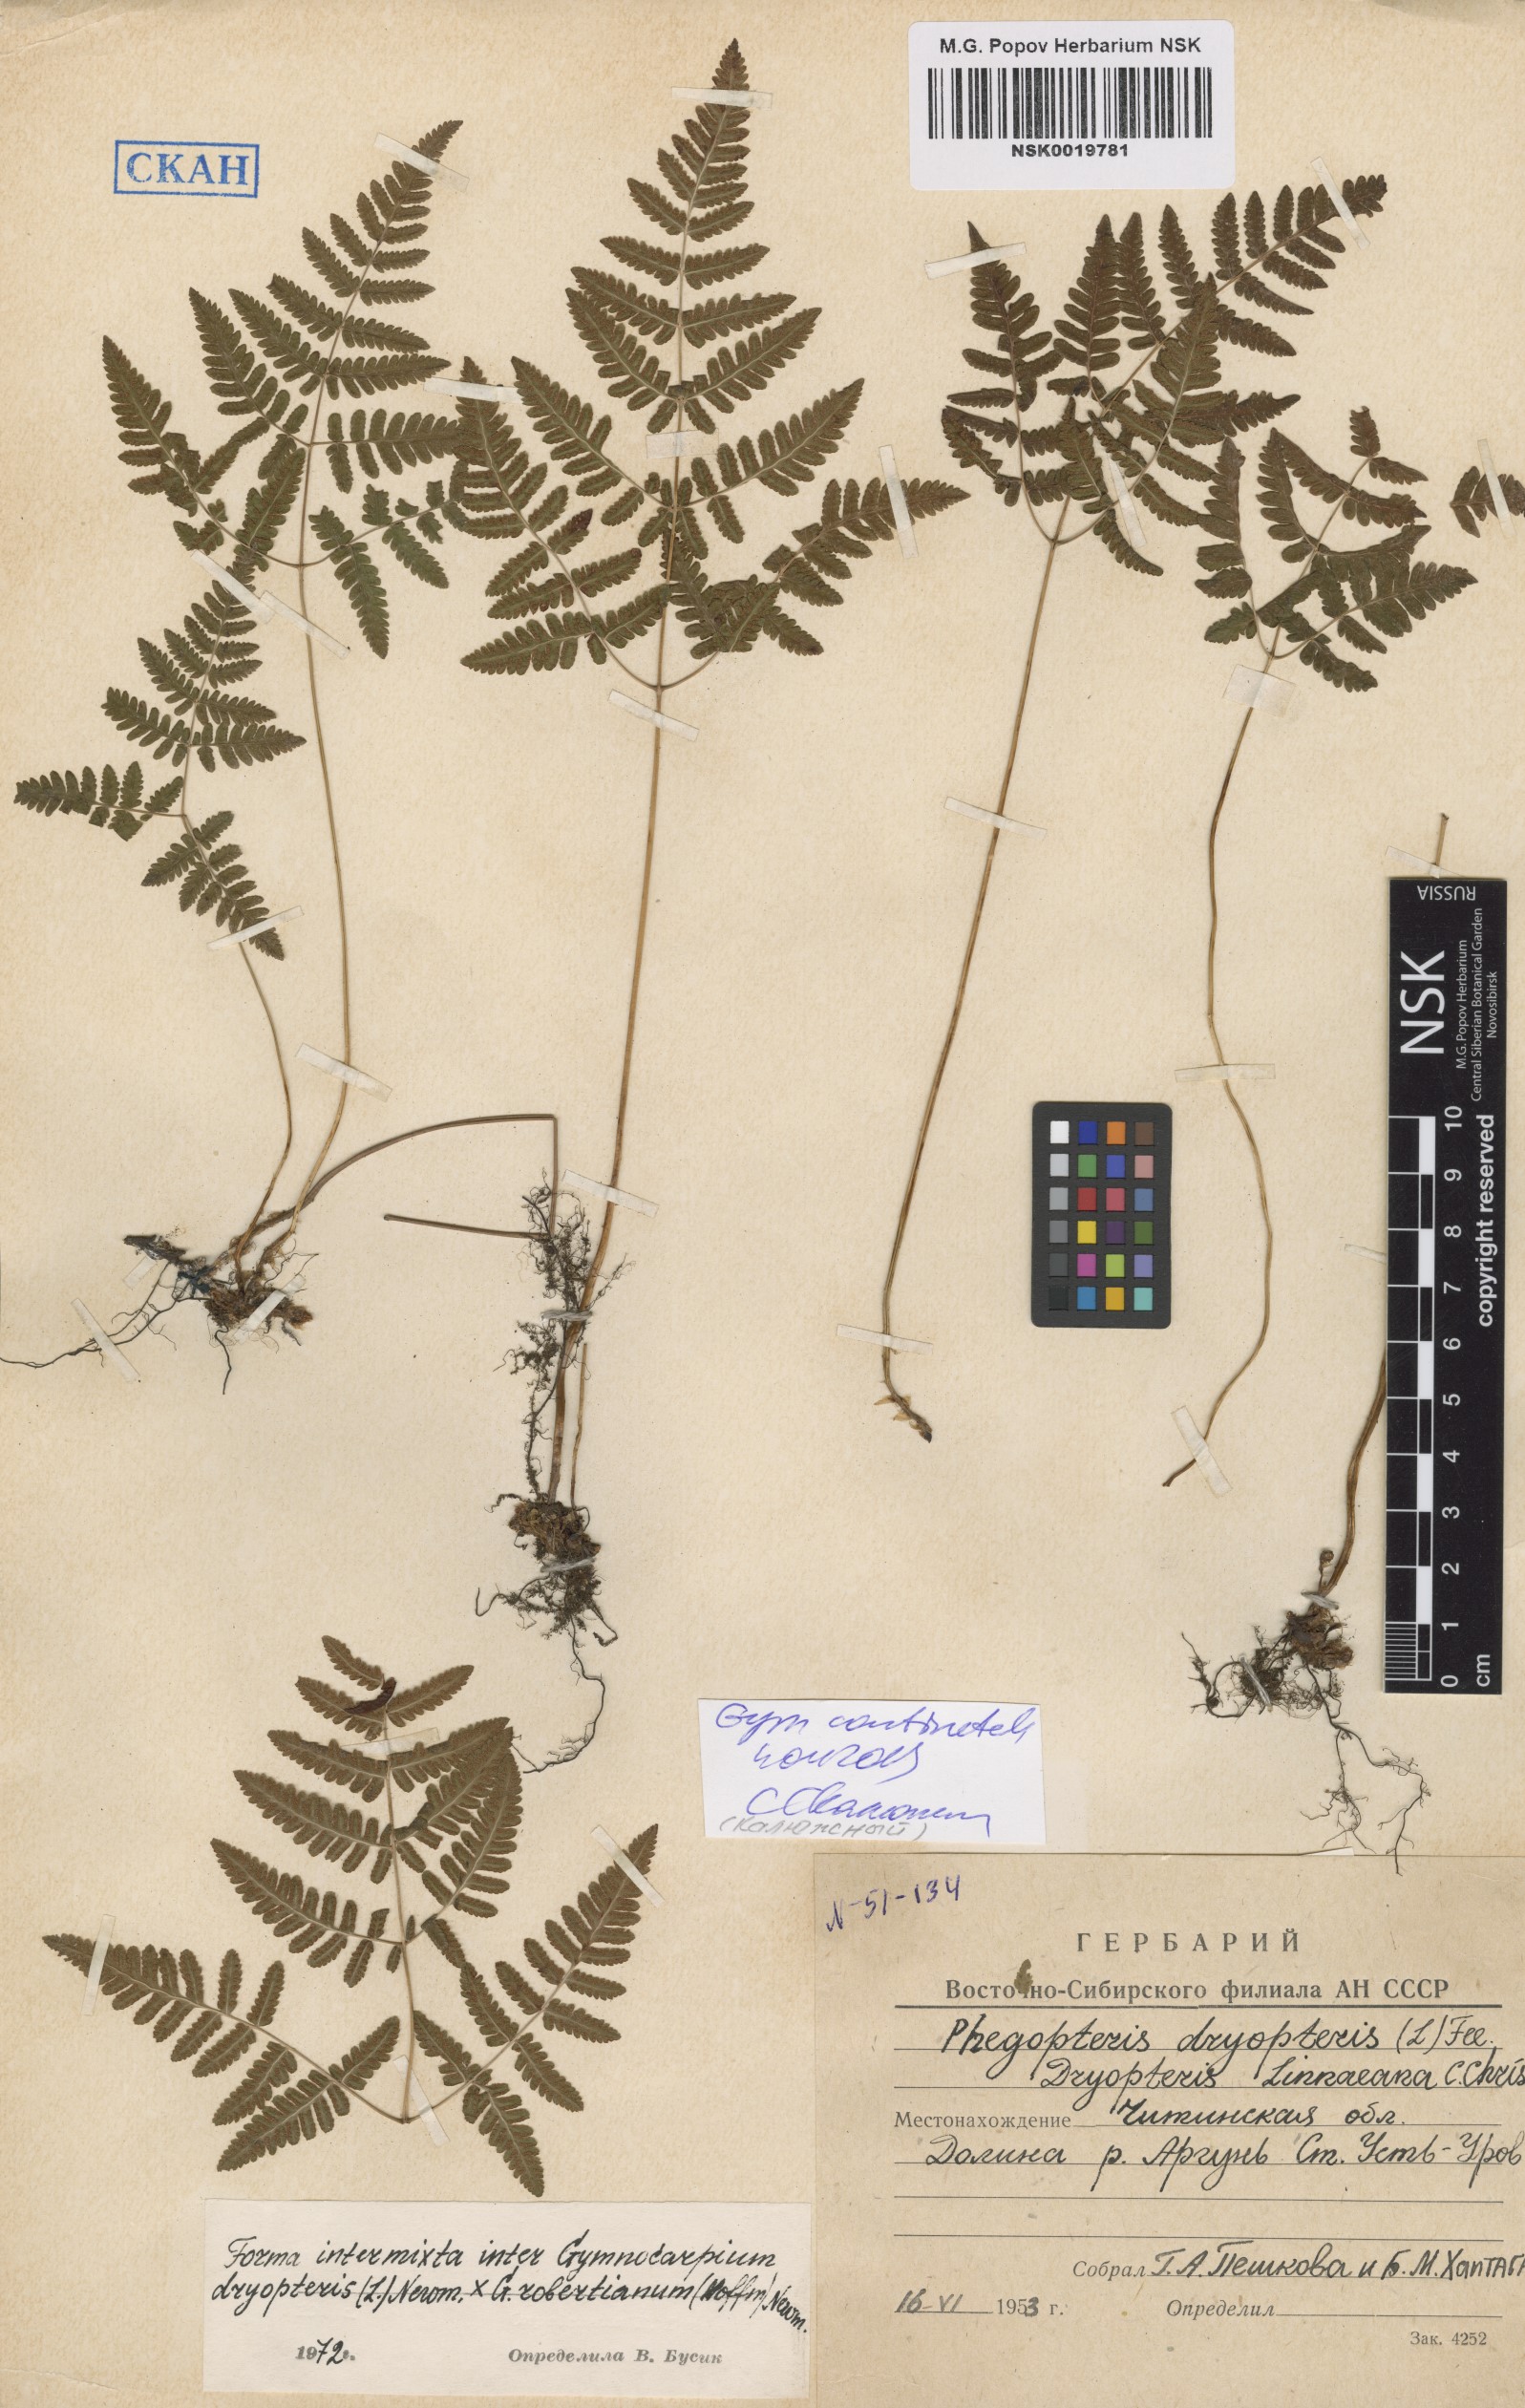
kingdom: Plantae
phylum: Tracheophyta
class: Polypodiopsida
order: Polypodiales
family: Cystopteridaceae
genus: Gymnocarpium
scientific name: Gymnocarpium continentale
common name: Asian oak fern
